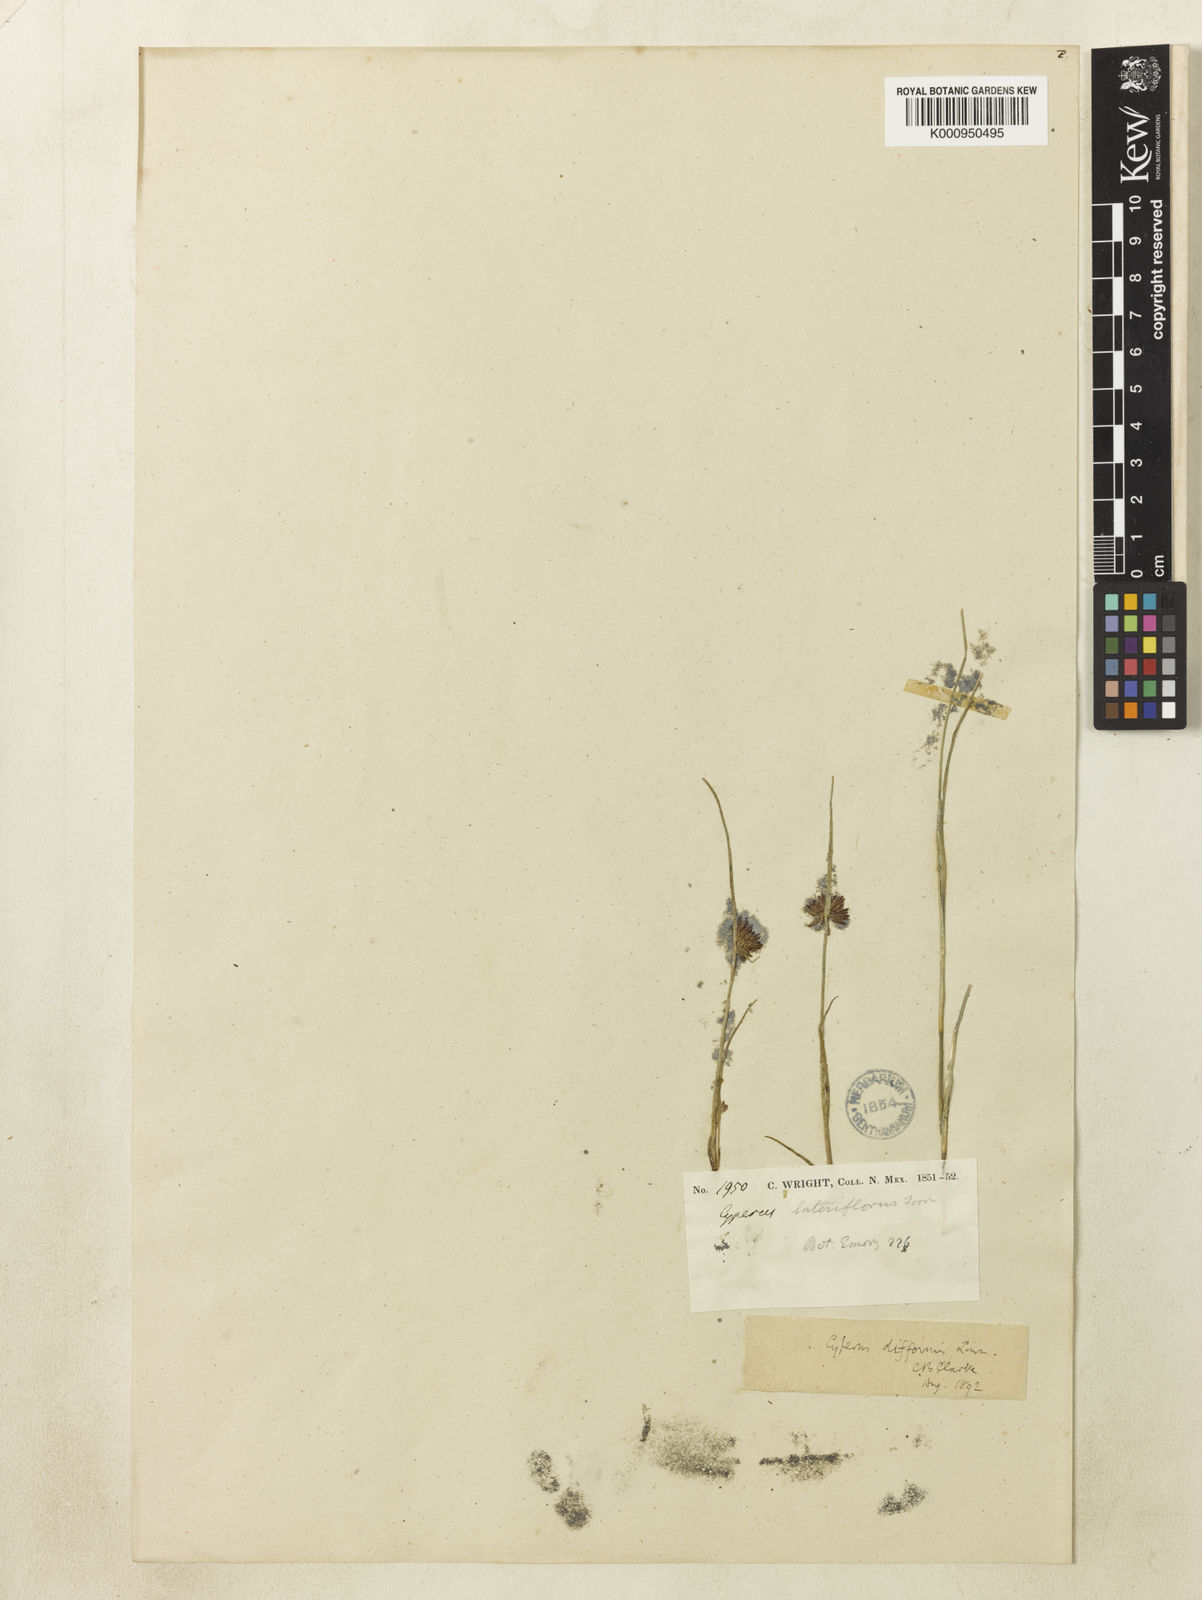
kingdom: Plantae
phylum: Tracheophyta
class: Liliopsida
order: Poales
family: Cyperaceae
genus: Cyperus
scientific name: Cyperus difformis
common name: Variable flatsedge
